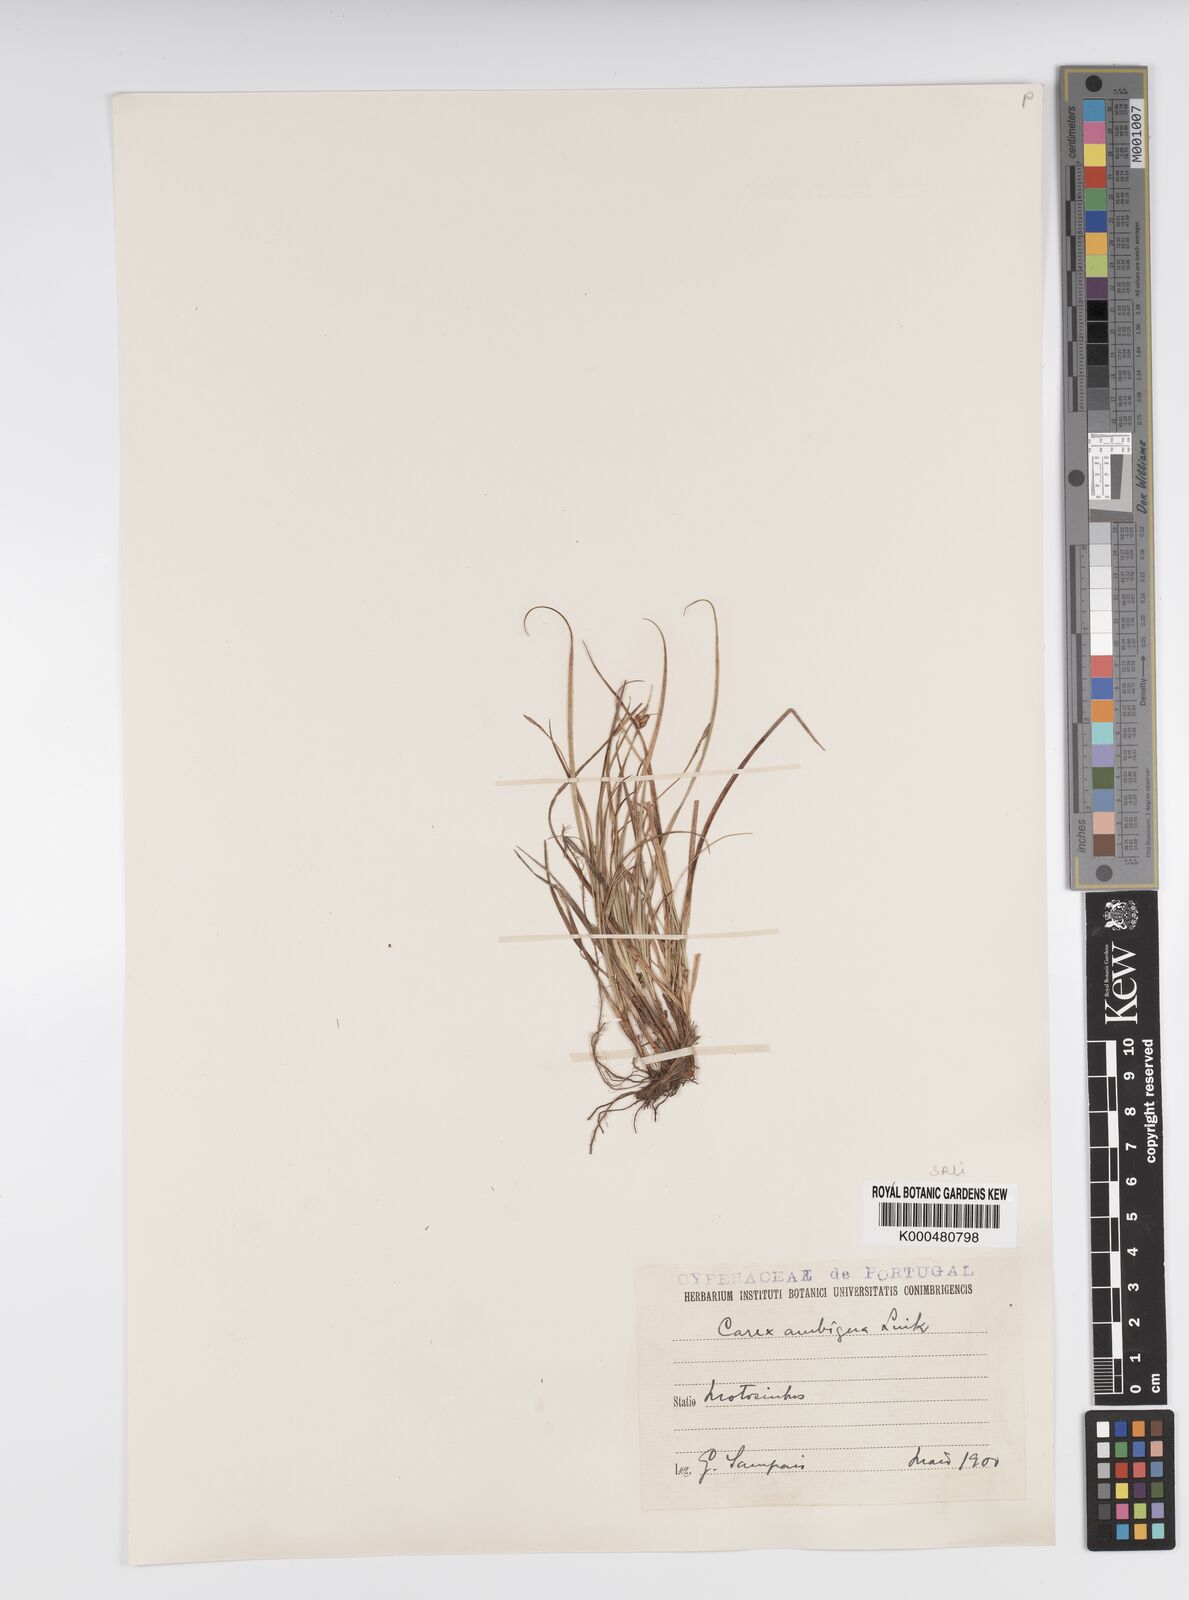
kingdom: Plantae
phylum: Tracheophyta
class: Liliopsida
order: Poales
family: Cyperaceae
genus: Carex
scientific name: Carex
